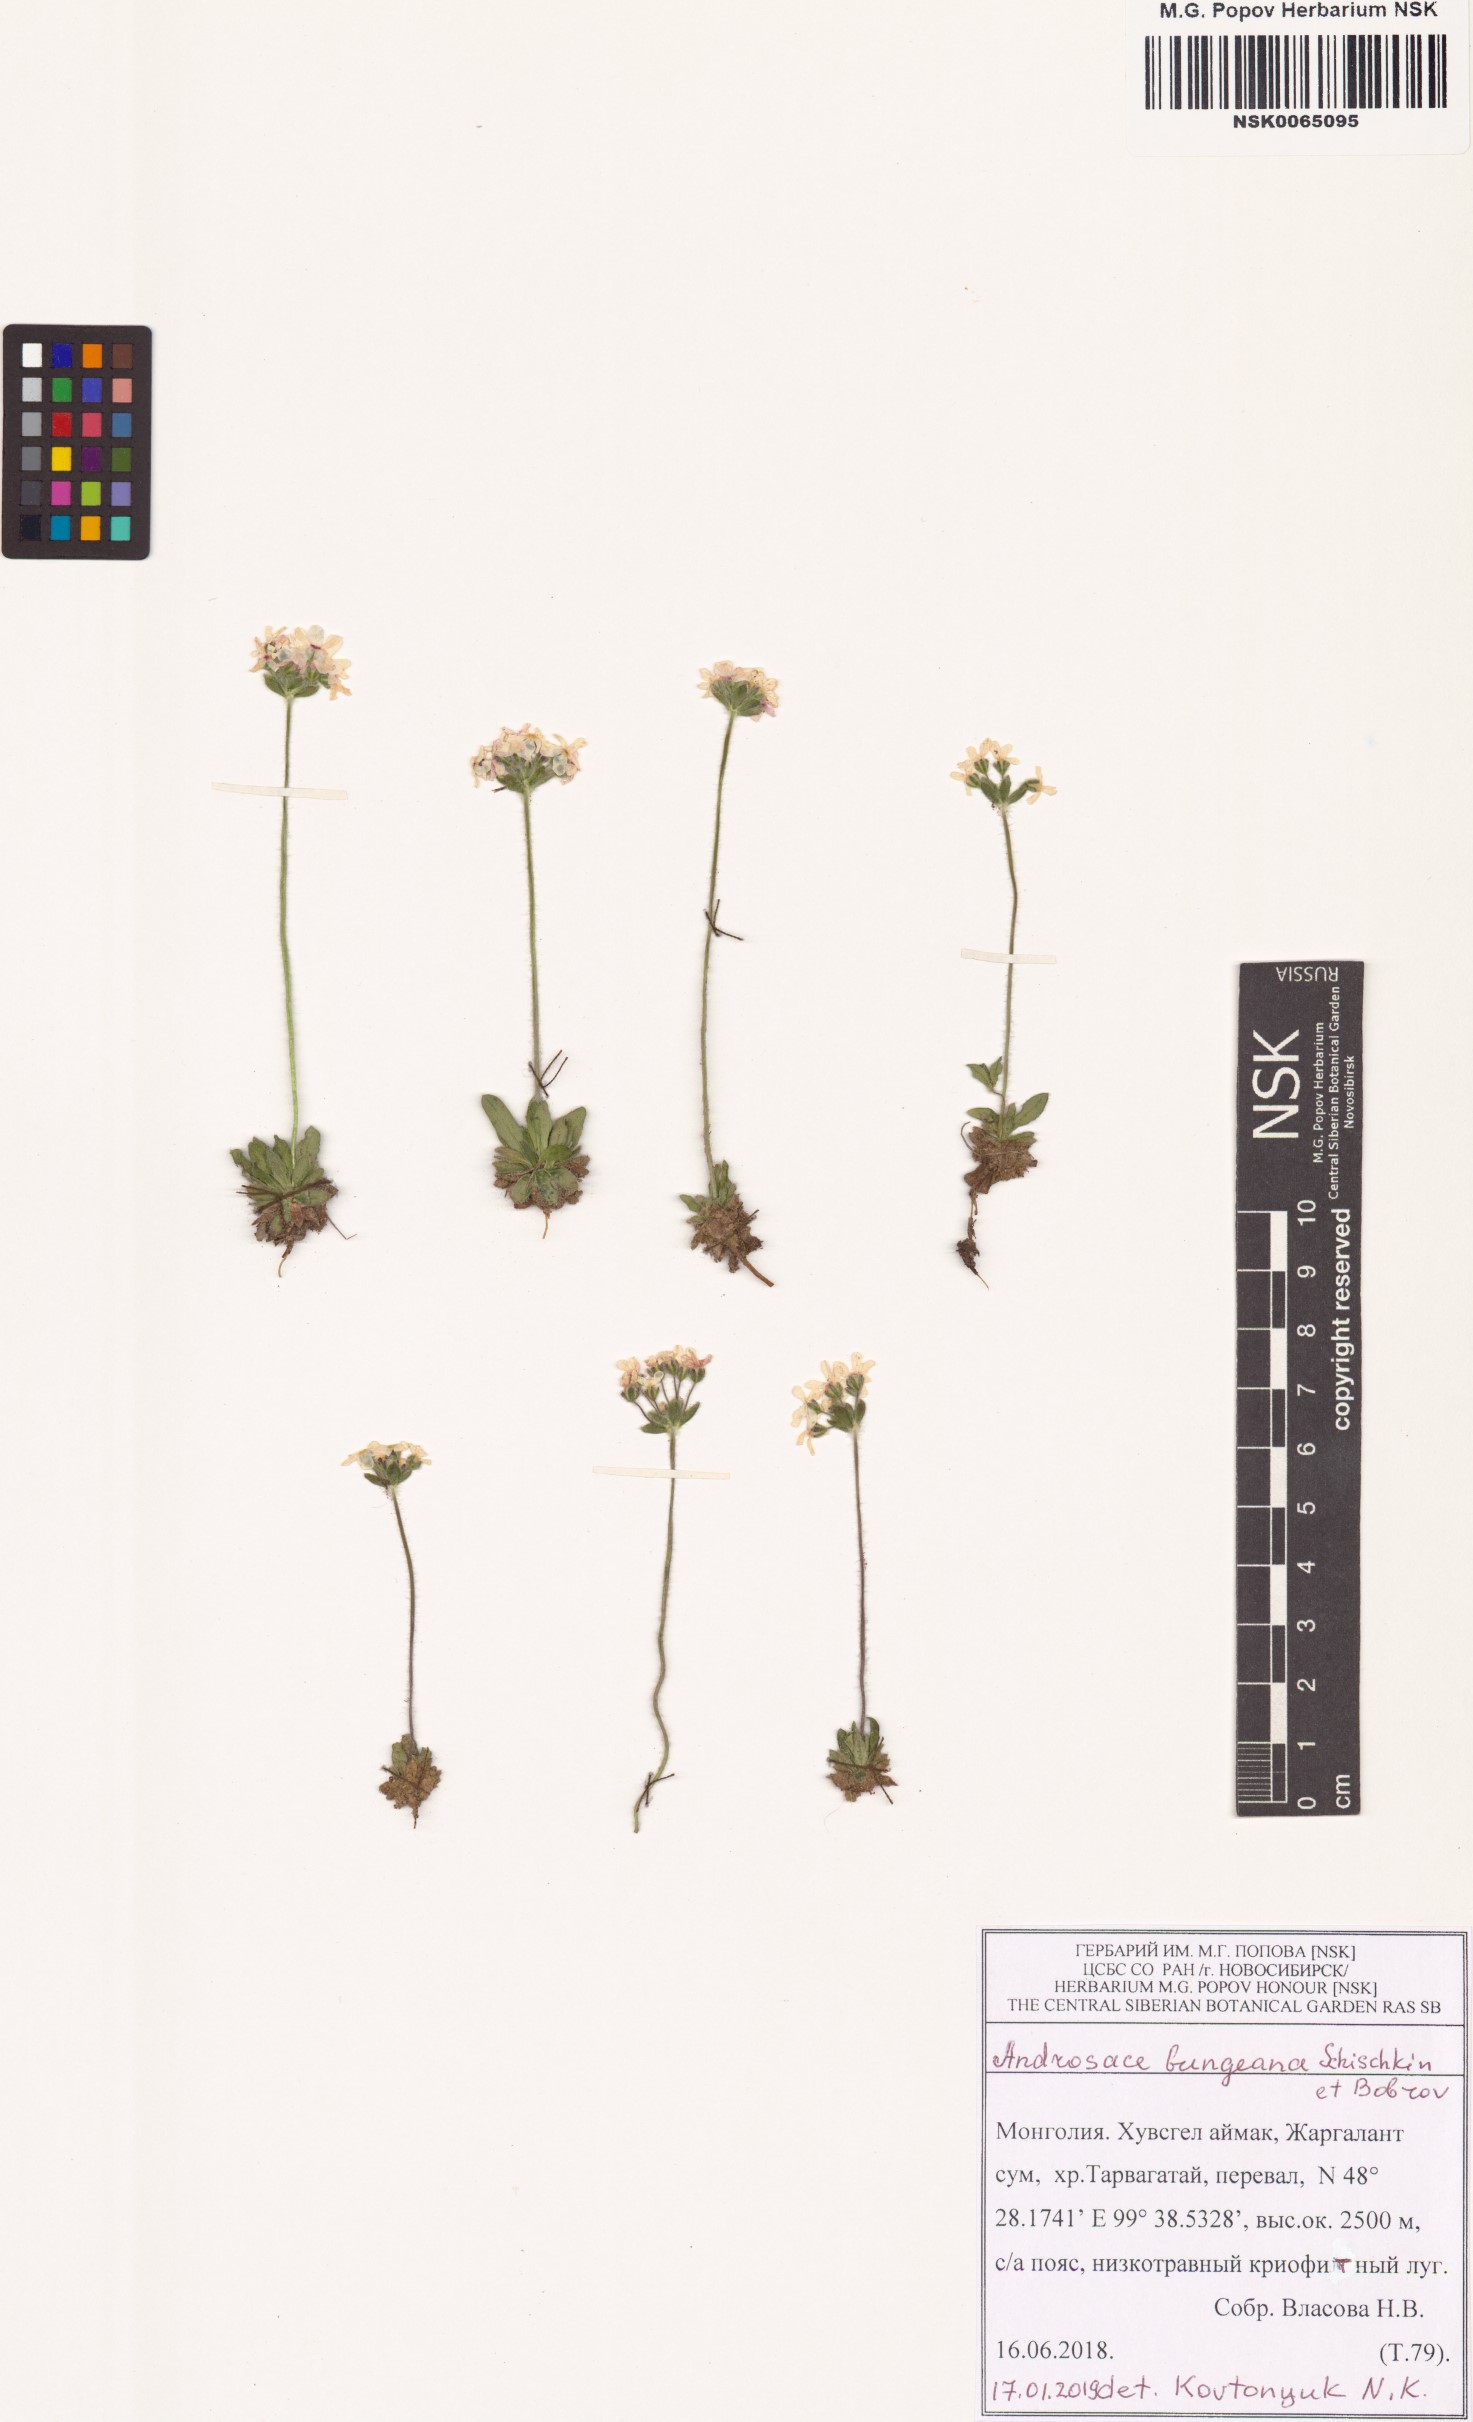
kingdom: Plantae
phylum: Tracheophyta
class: Magnoliopsida
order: Ericales
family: Primulaceae
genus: Androsace
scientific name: Androsace bungeana
